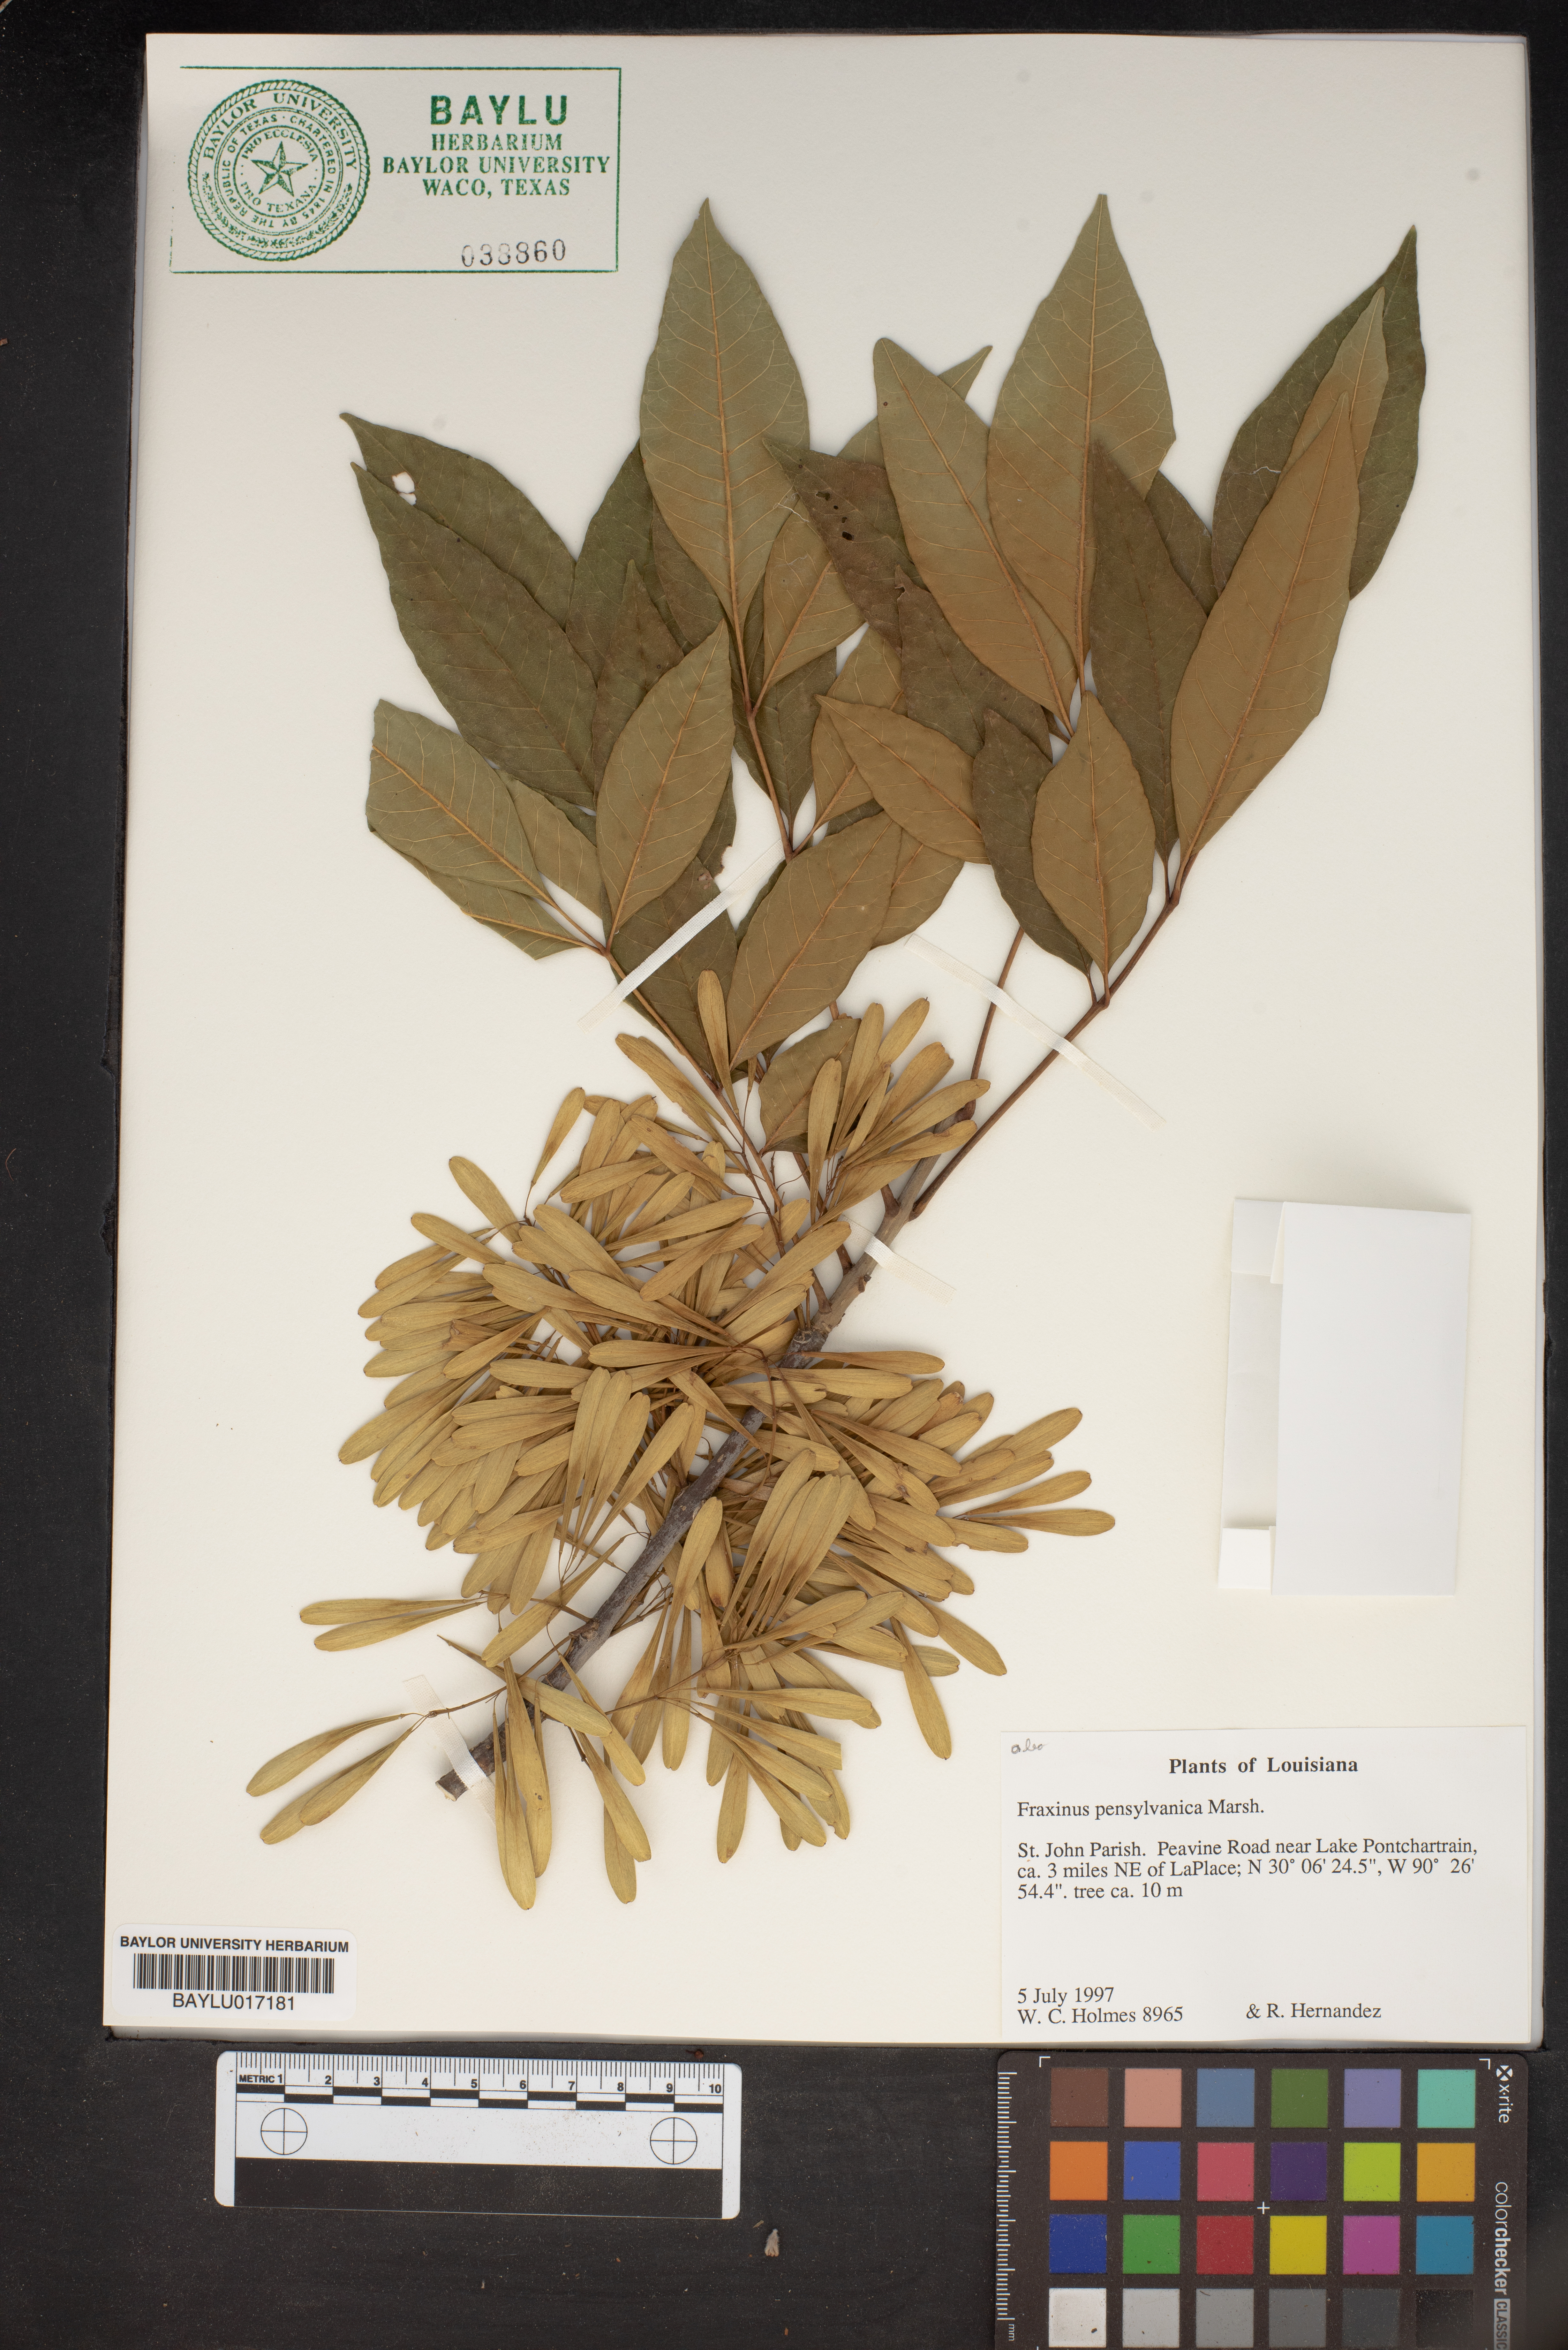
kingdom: Plantae
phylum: Tracheophyta
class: Magnoliopsida
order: Lamiales
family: Oleaceae
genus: Fraxinus
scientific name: Fraxinus pennsylvanica
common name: Green ash
